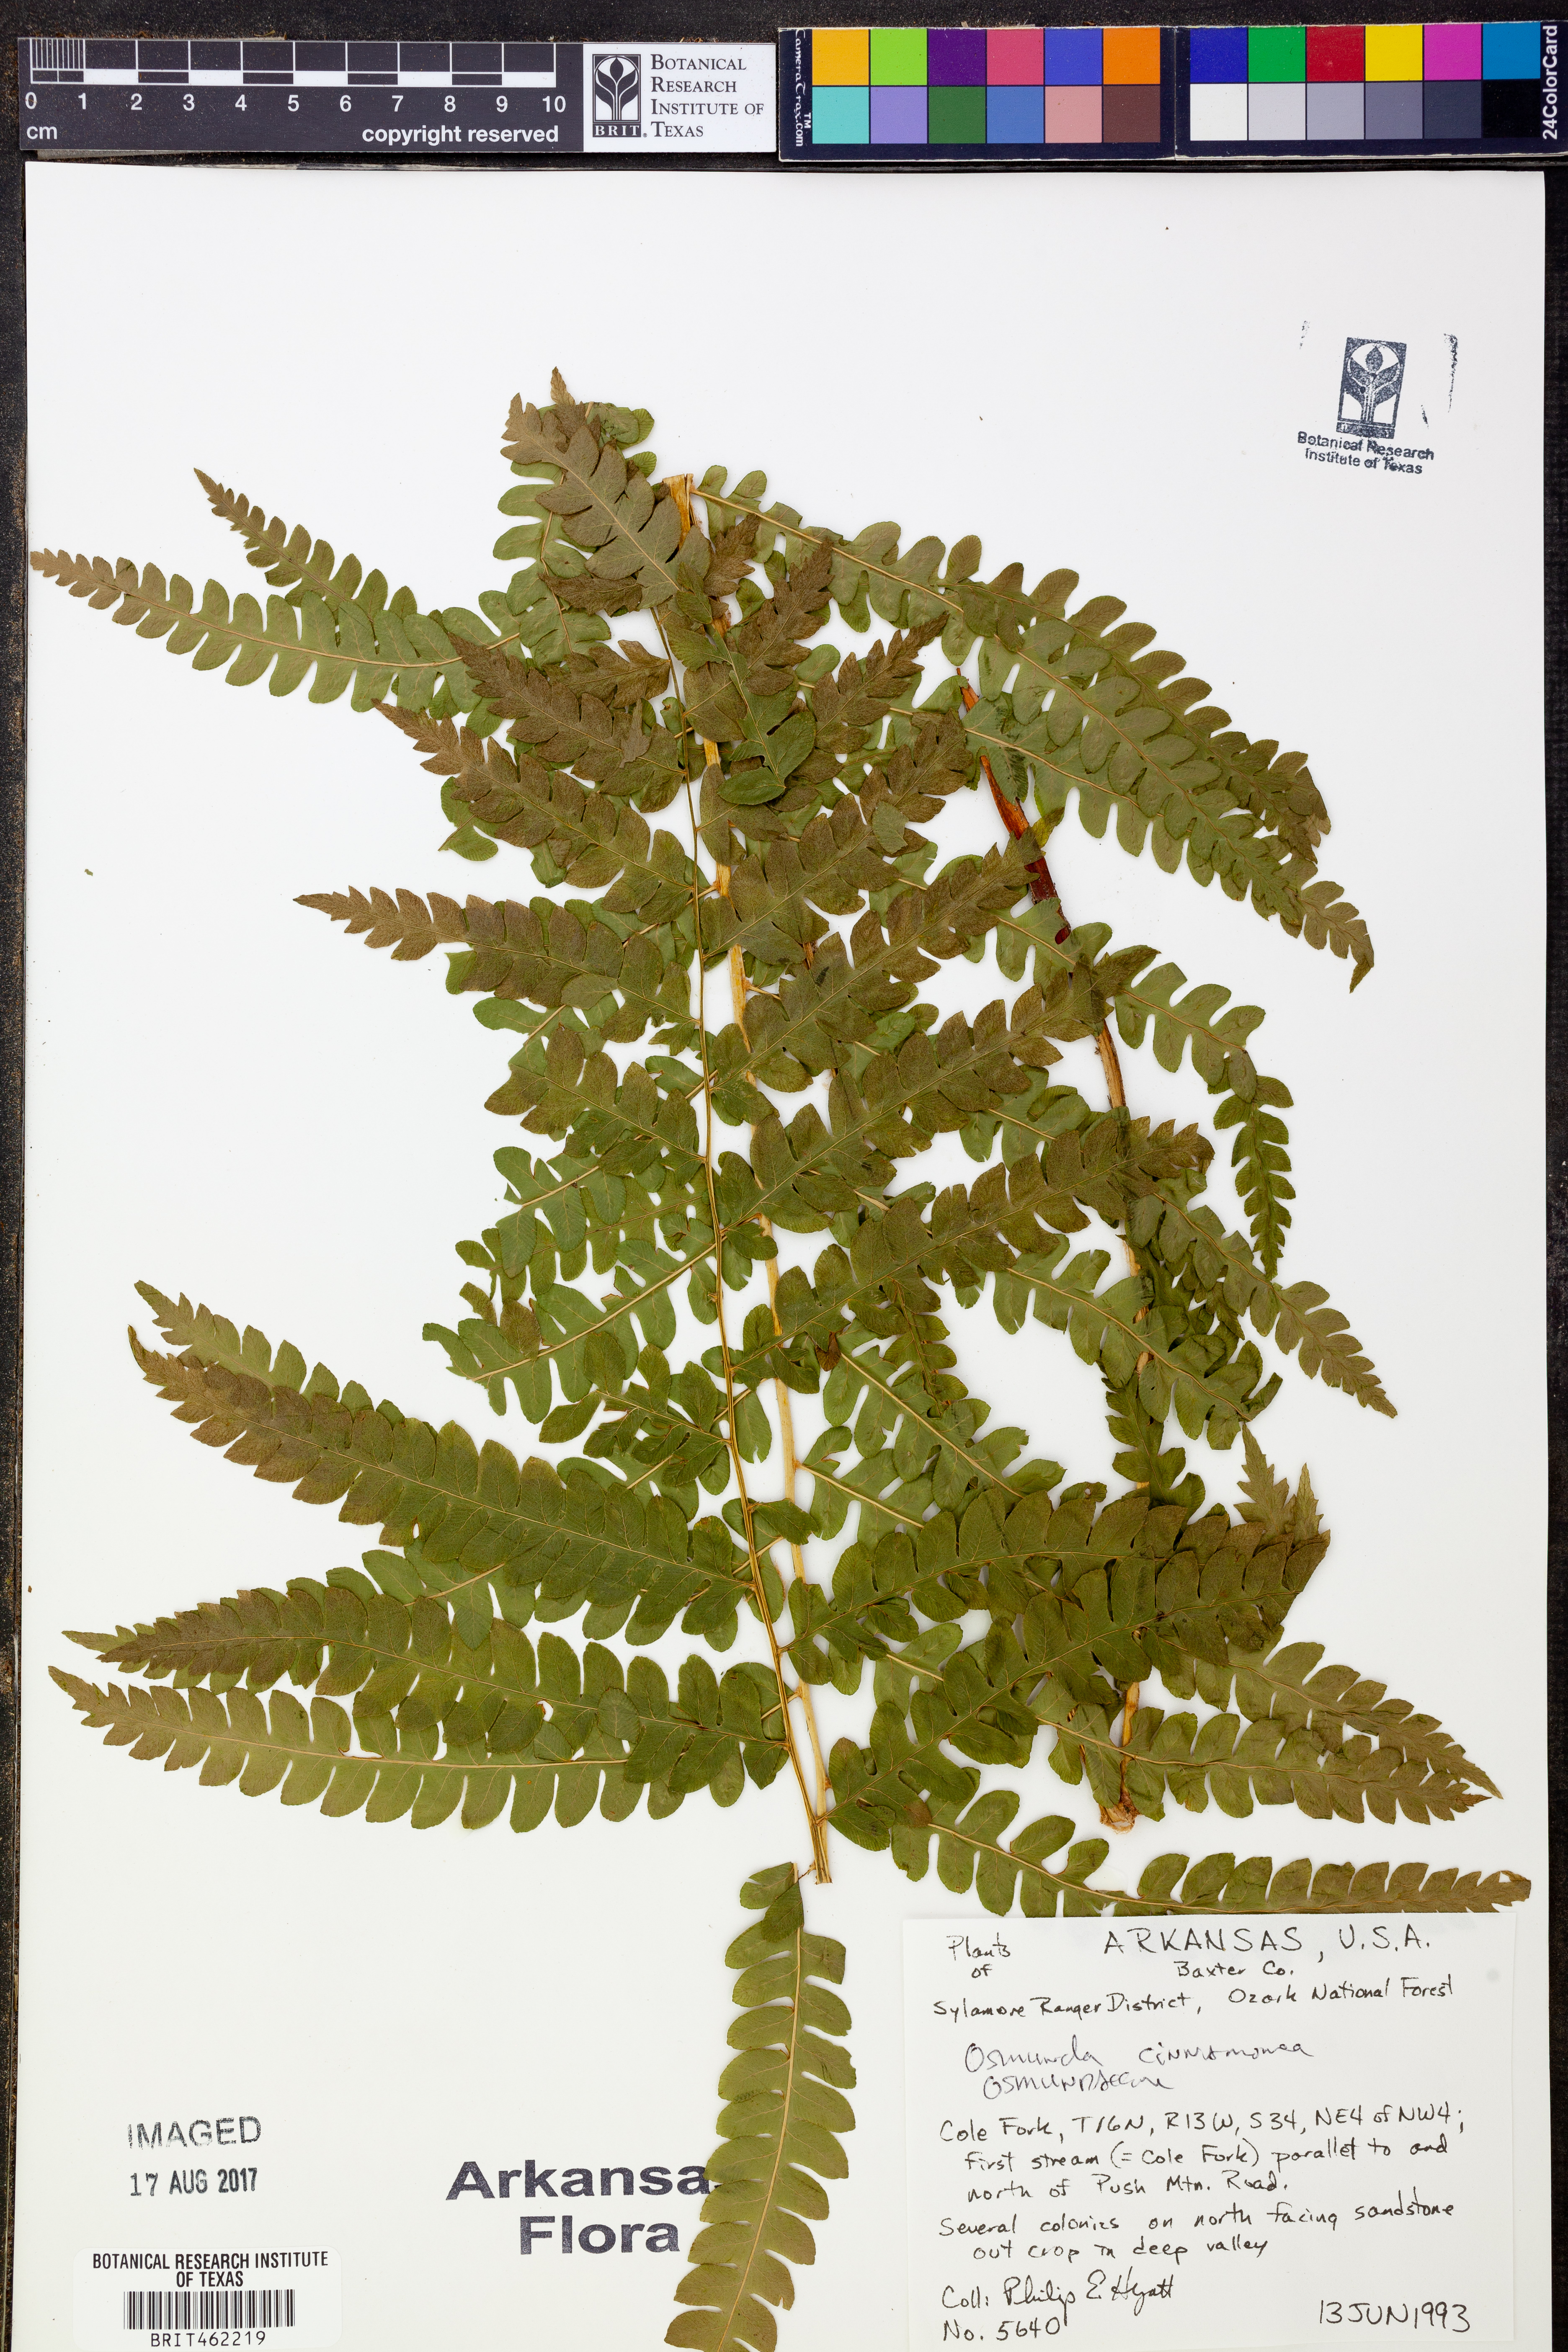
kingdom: Plantae
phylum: Tracheophyta
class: Polypodiopsida
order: Osmundales
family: Osmundaceae
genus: Osmundastrum
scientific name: Osmundastrum cinnamomeum
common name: Cinnamon fern
